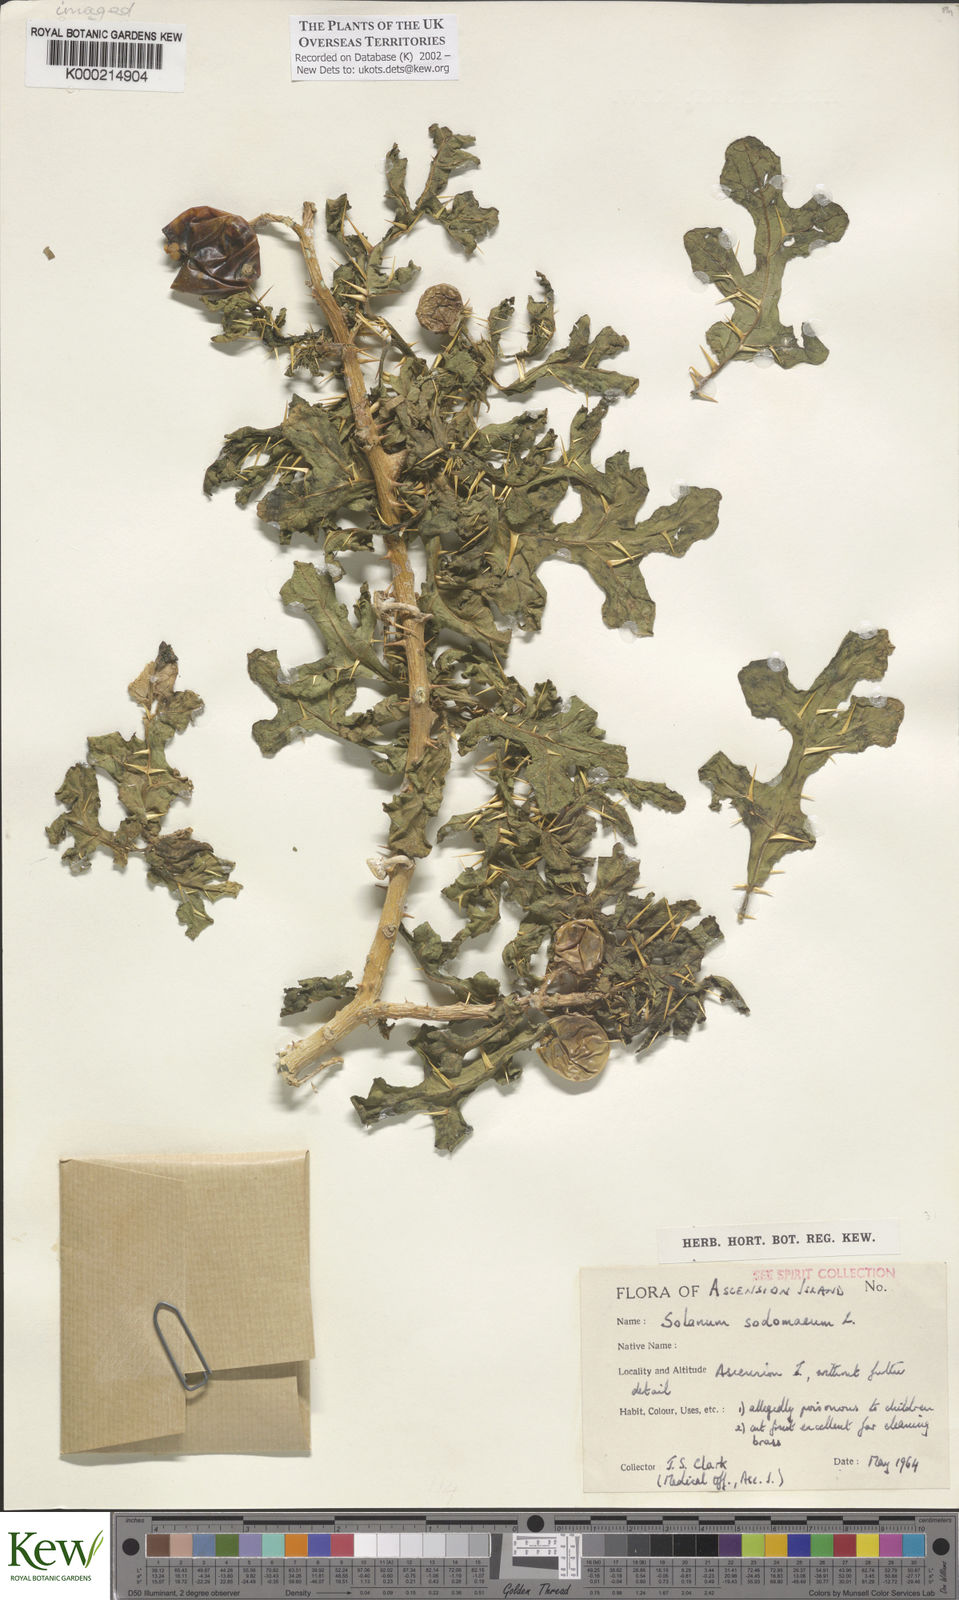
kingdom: Plantae
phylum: Tracheophyta
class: Magnoliopsida
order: Solanales
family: Solanaceae
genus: Solanum
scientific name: Solanum linnaeanum
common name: Nightshade
